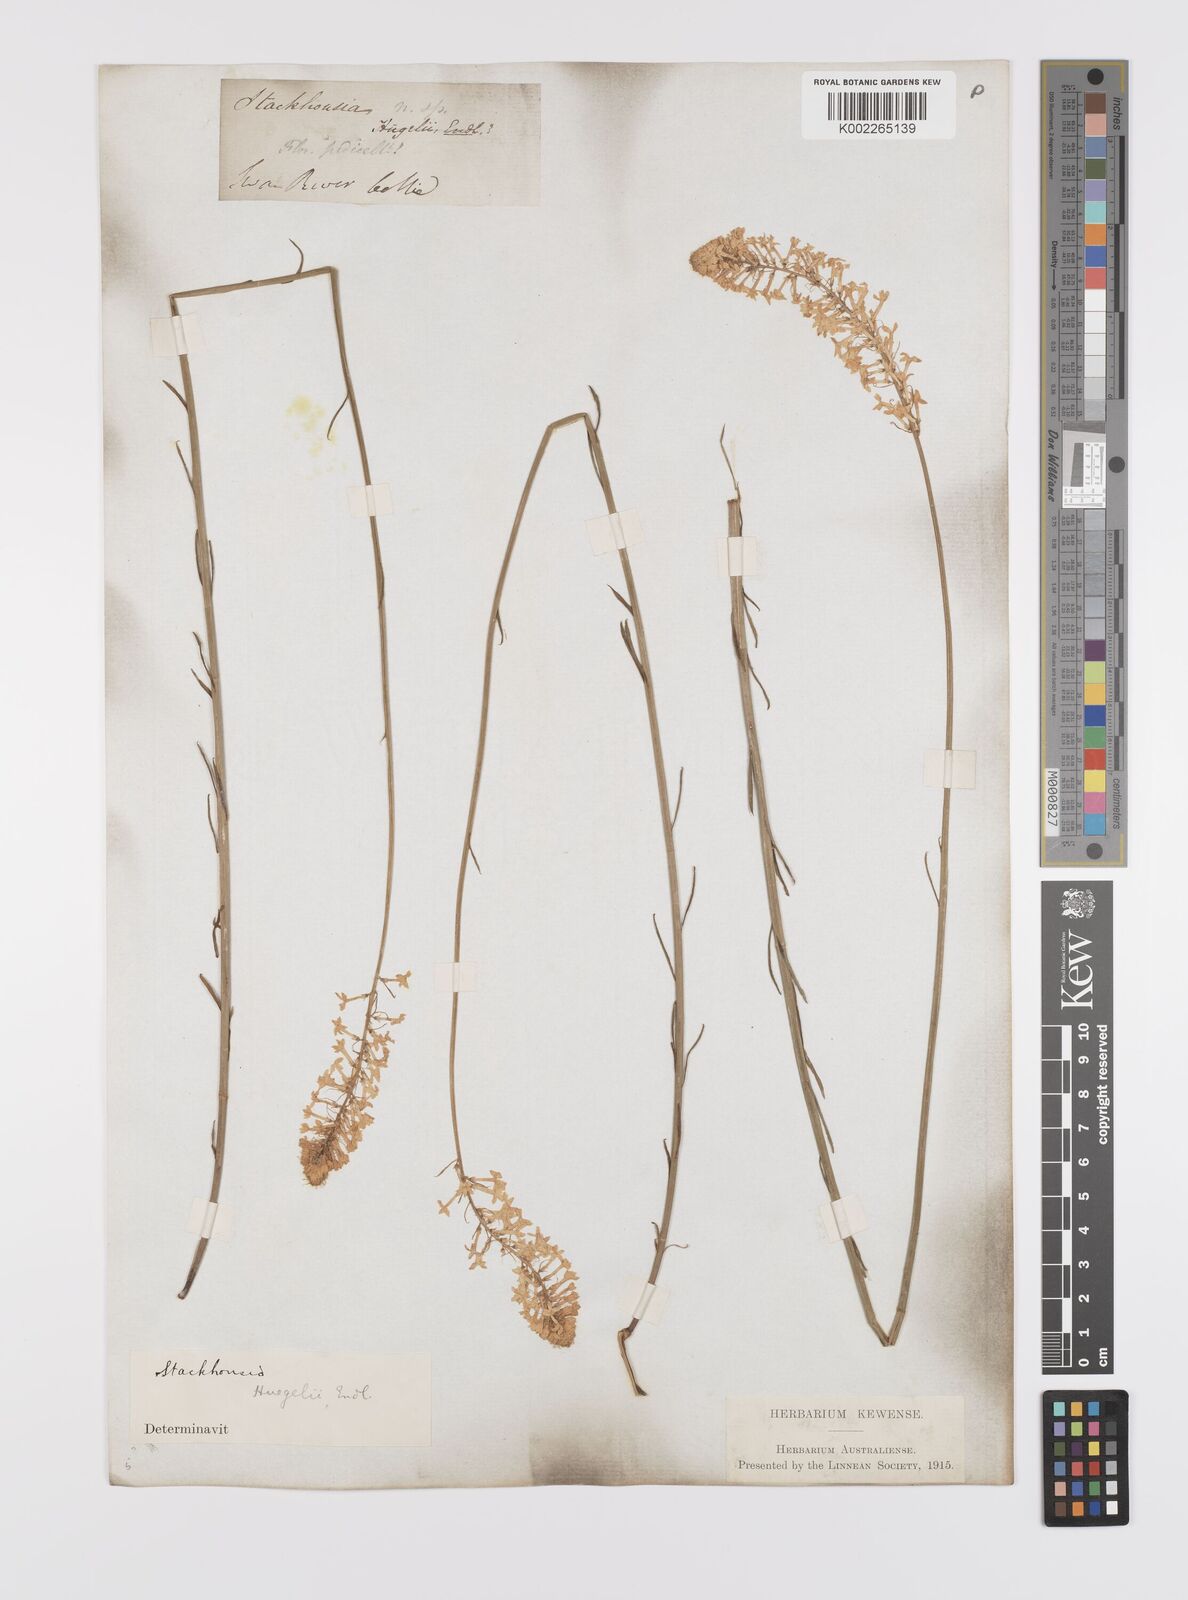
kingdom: Plantae
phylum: Tracheophyta
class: Magnoliopsida
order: Celastrales
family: Celastraceae
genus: Stackhousia
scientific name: Stackhousia monogyna
